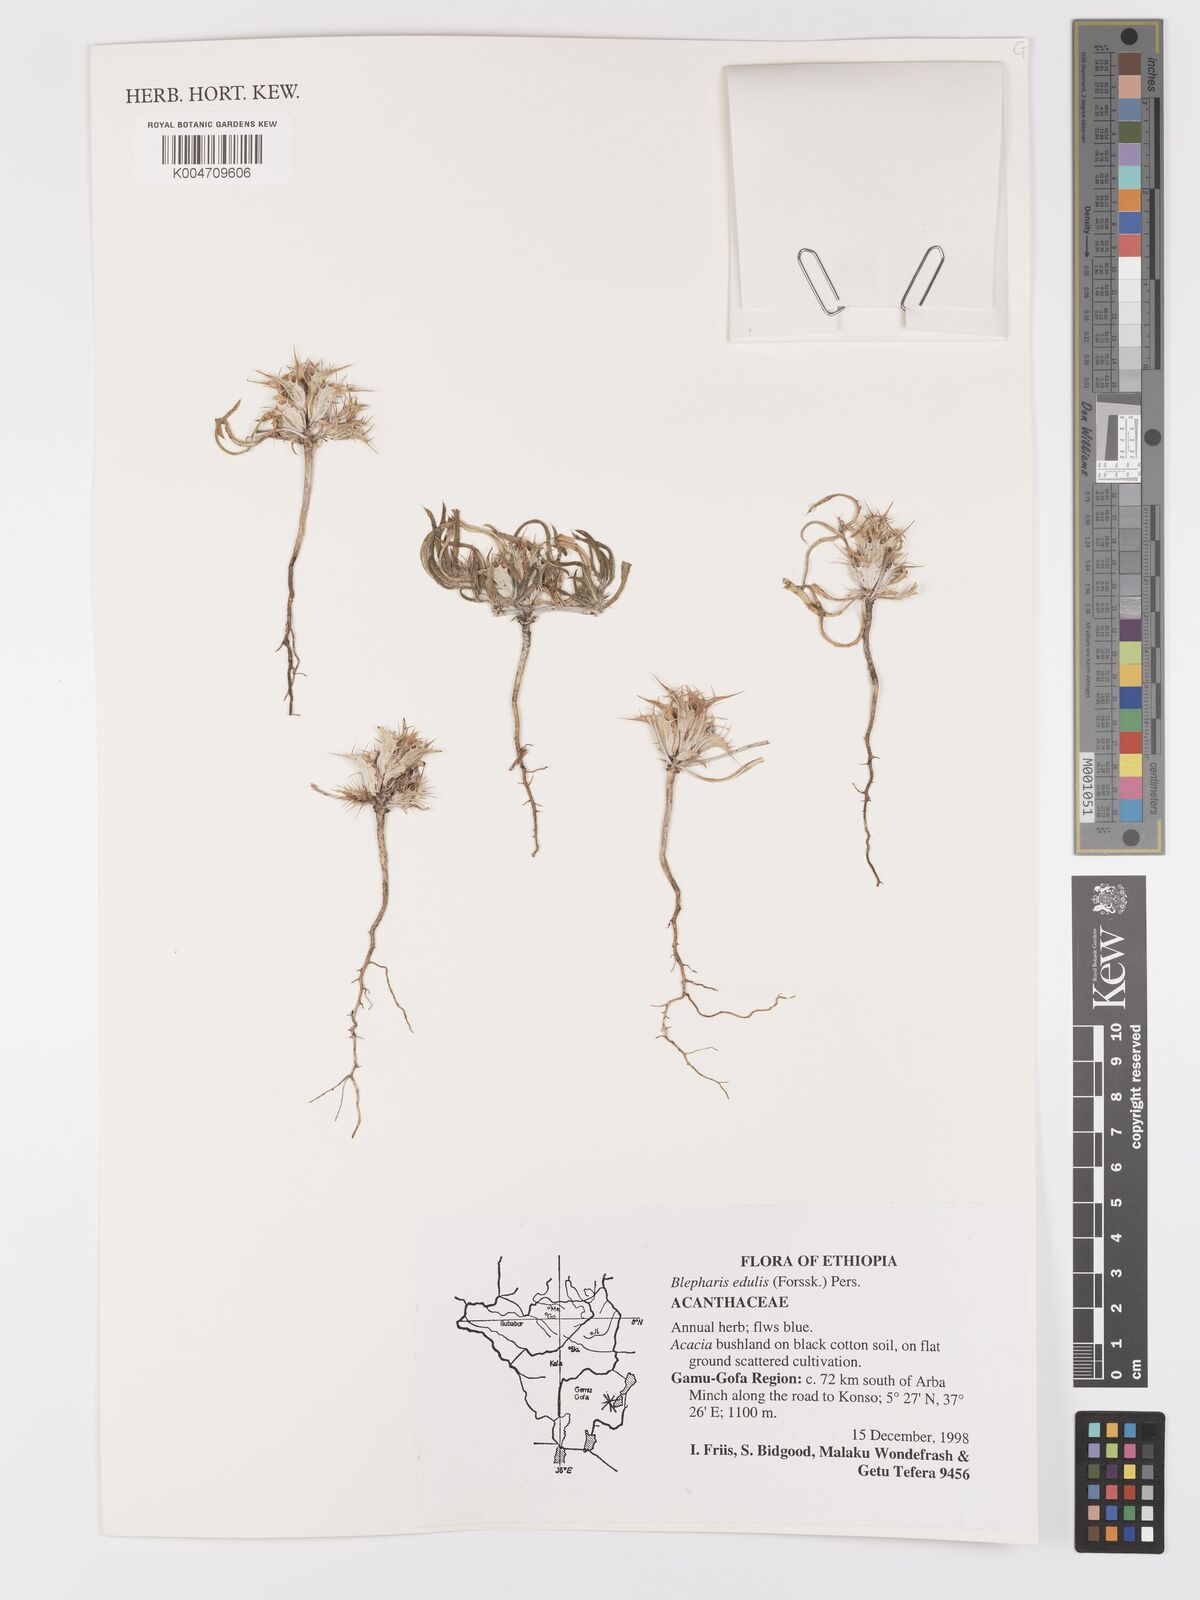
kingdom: Plantae
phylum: Tracheophyta
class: Magnoliopsida
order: Lamiales
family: Acanthaceae
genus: Blepharis
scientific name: Blepharis edulis
